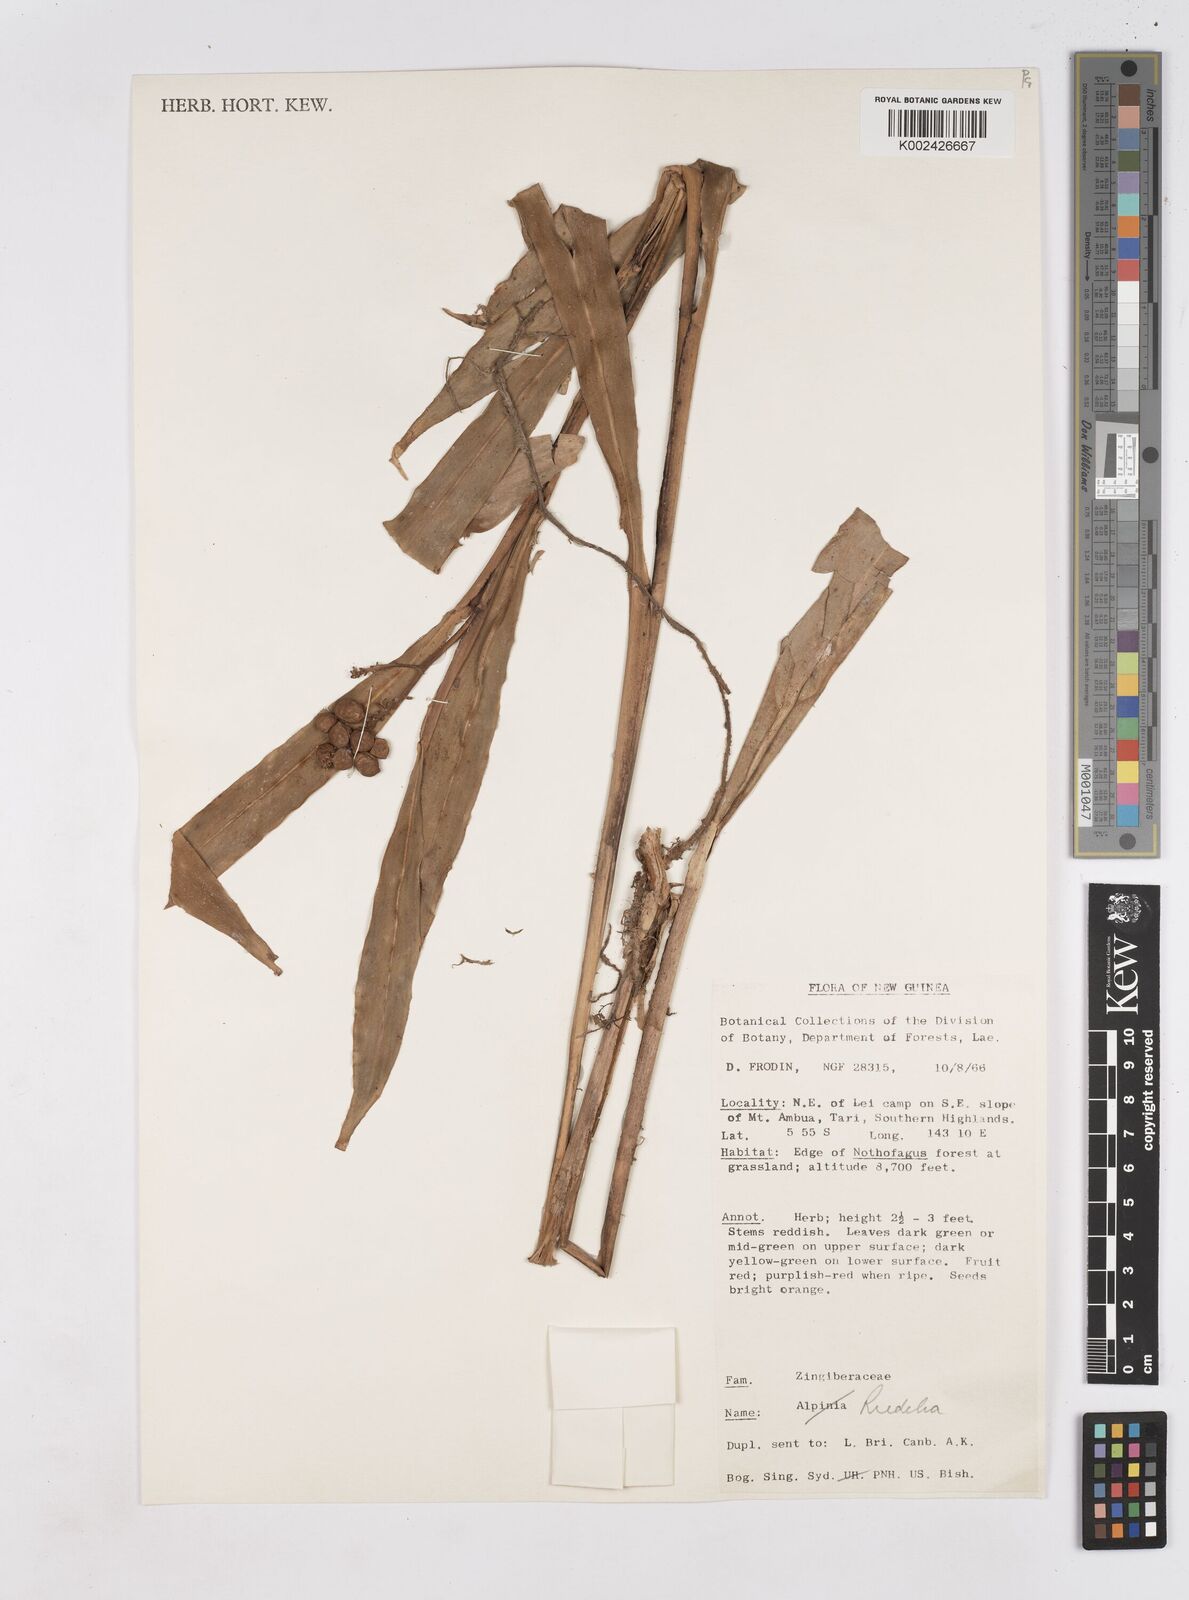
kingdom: Plantae
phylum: Tracheophyta
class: Liliopsida
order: Zingiberales
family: Zingiberaceae
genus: Riedelia
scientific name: Riedelia
